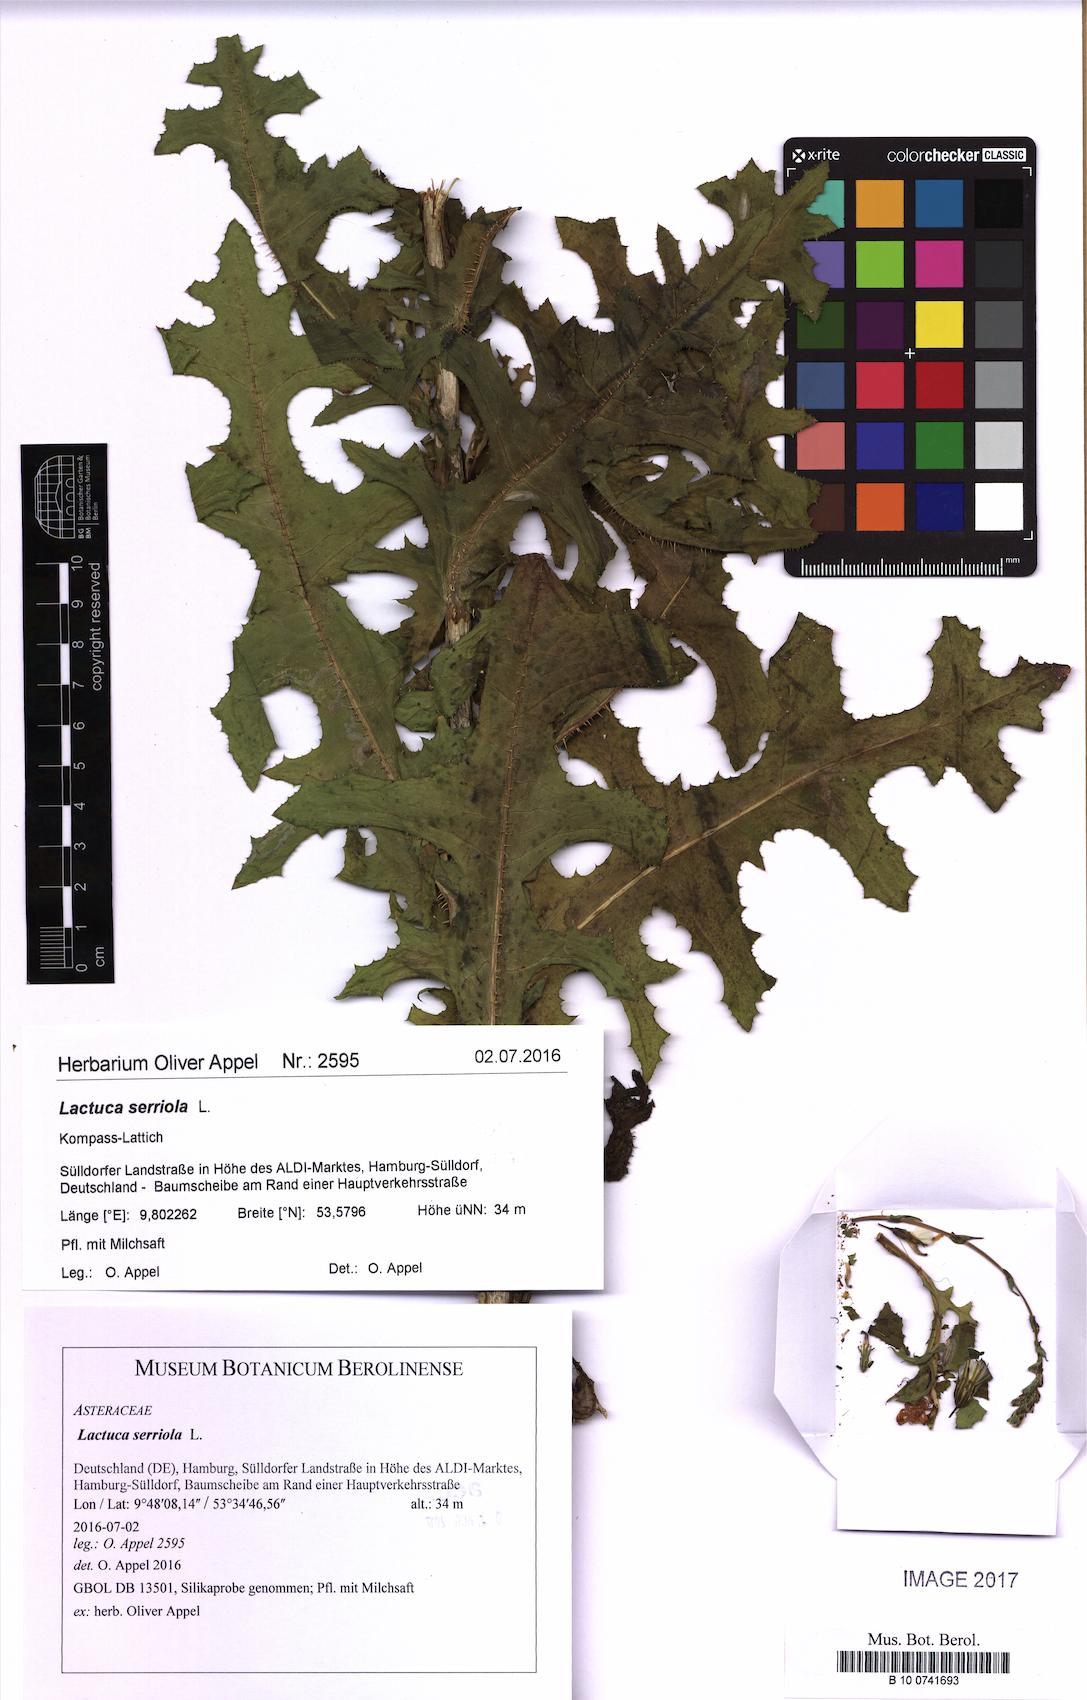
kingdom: Plantae
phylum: Tracheophyta
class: Magnoliopsida
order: Asterales
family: Asteraceae
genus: Lactuca
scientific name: Lactuca serriola
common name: Prickly lettuce
